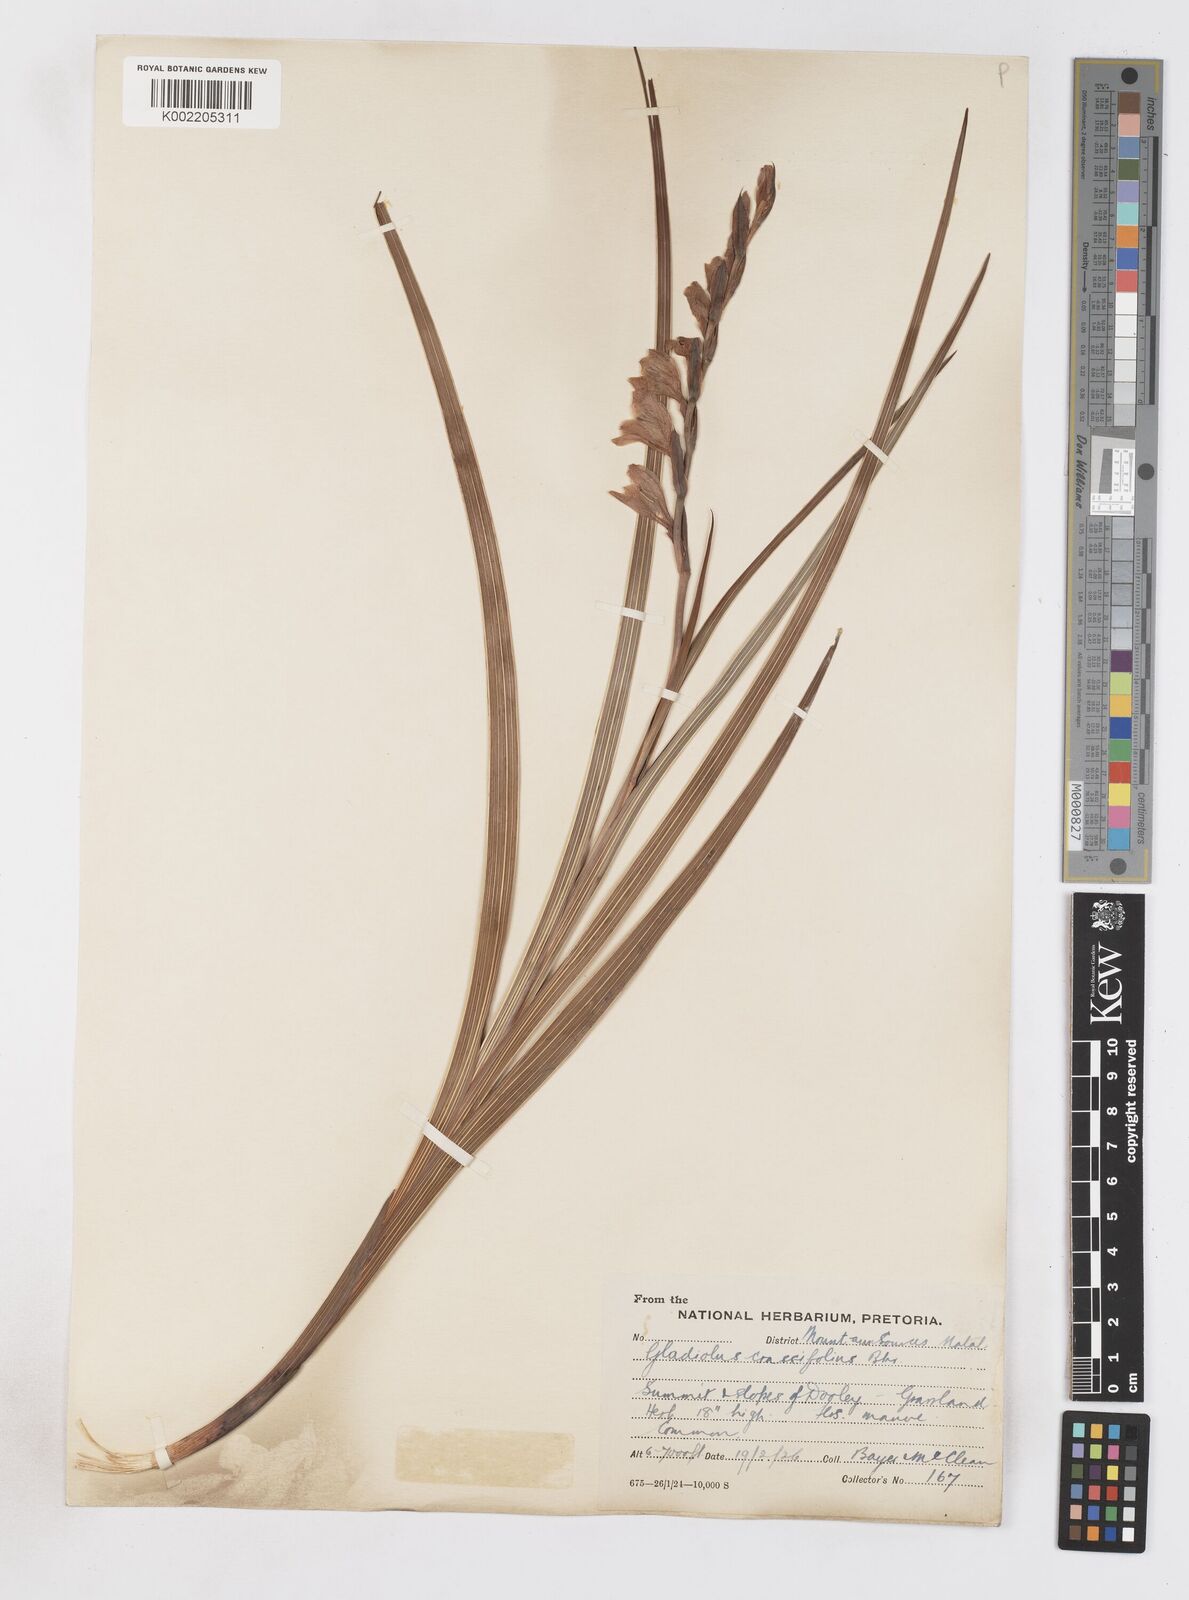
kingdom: Plantae
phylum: Tracheophyta
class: Liliopsida
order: Asparagales
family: Iridaceae
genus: Gladiolus
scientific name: Gladiolus crassifolius
